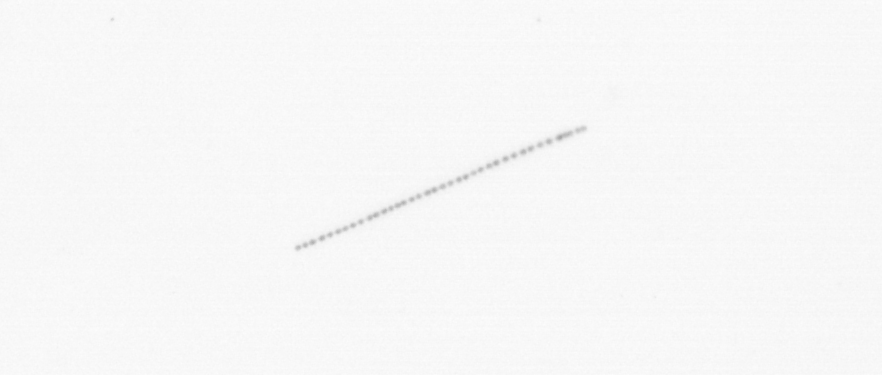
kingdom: Chromista
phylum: Ochrophyta
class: Bacillariophyceae
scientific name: Bacillariophyceae
